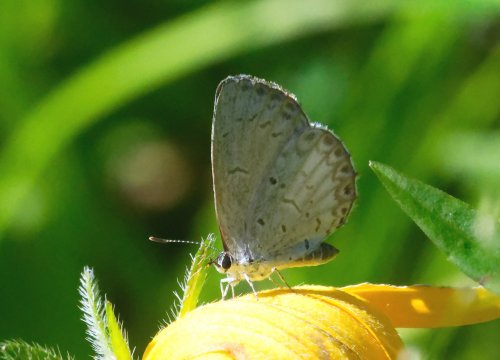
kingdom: Animalia
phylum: Arthropoda
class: Insecta
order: Lepidoptera
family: Lycaenidae
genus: Cyaniris
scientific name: Cyaniris neglecta
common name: Summer Azure
